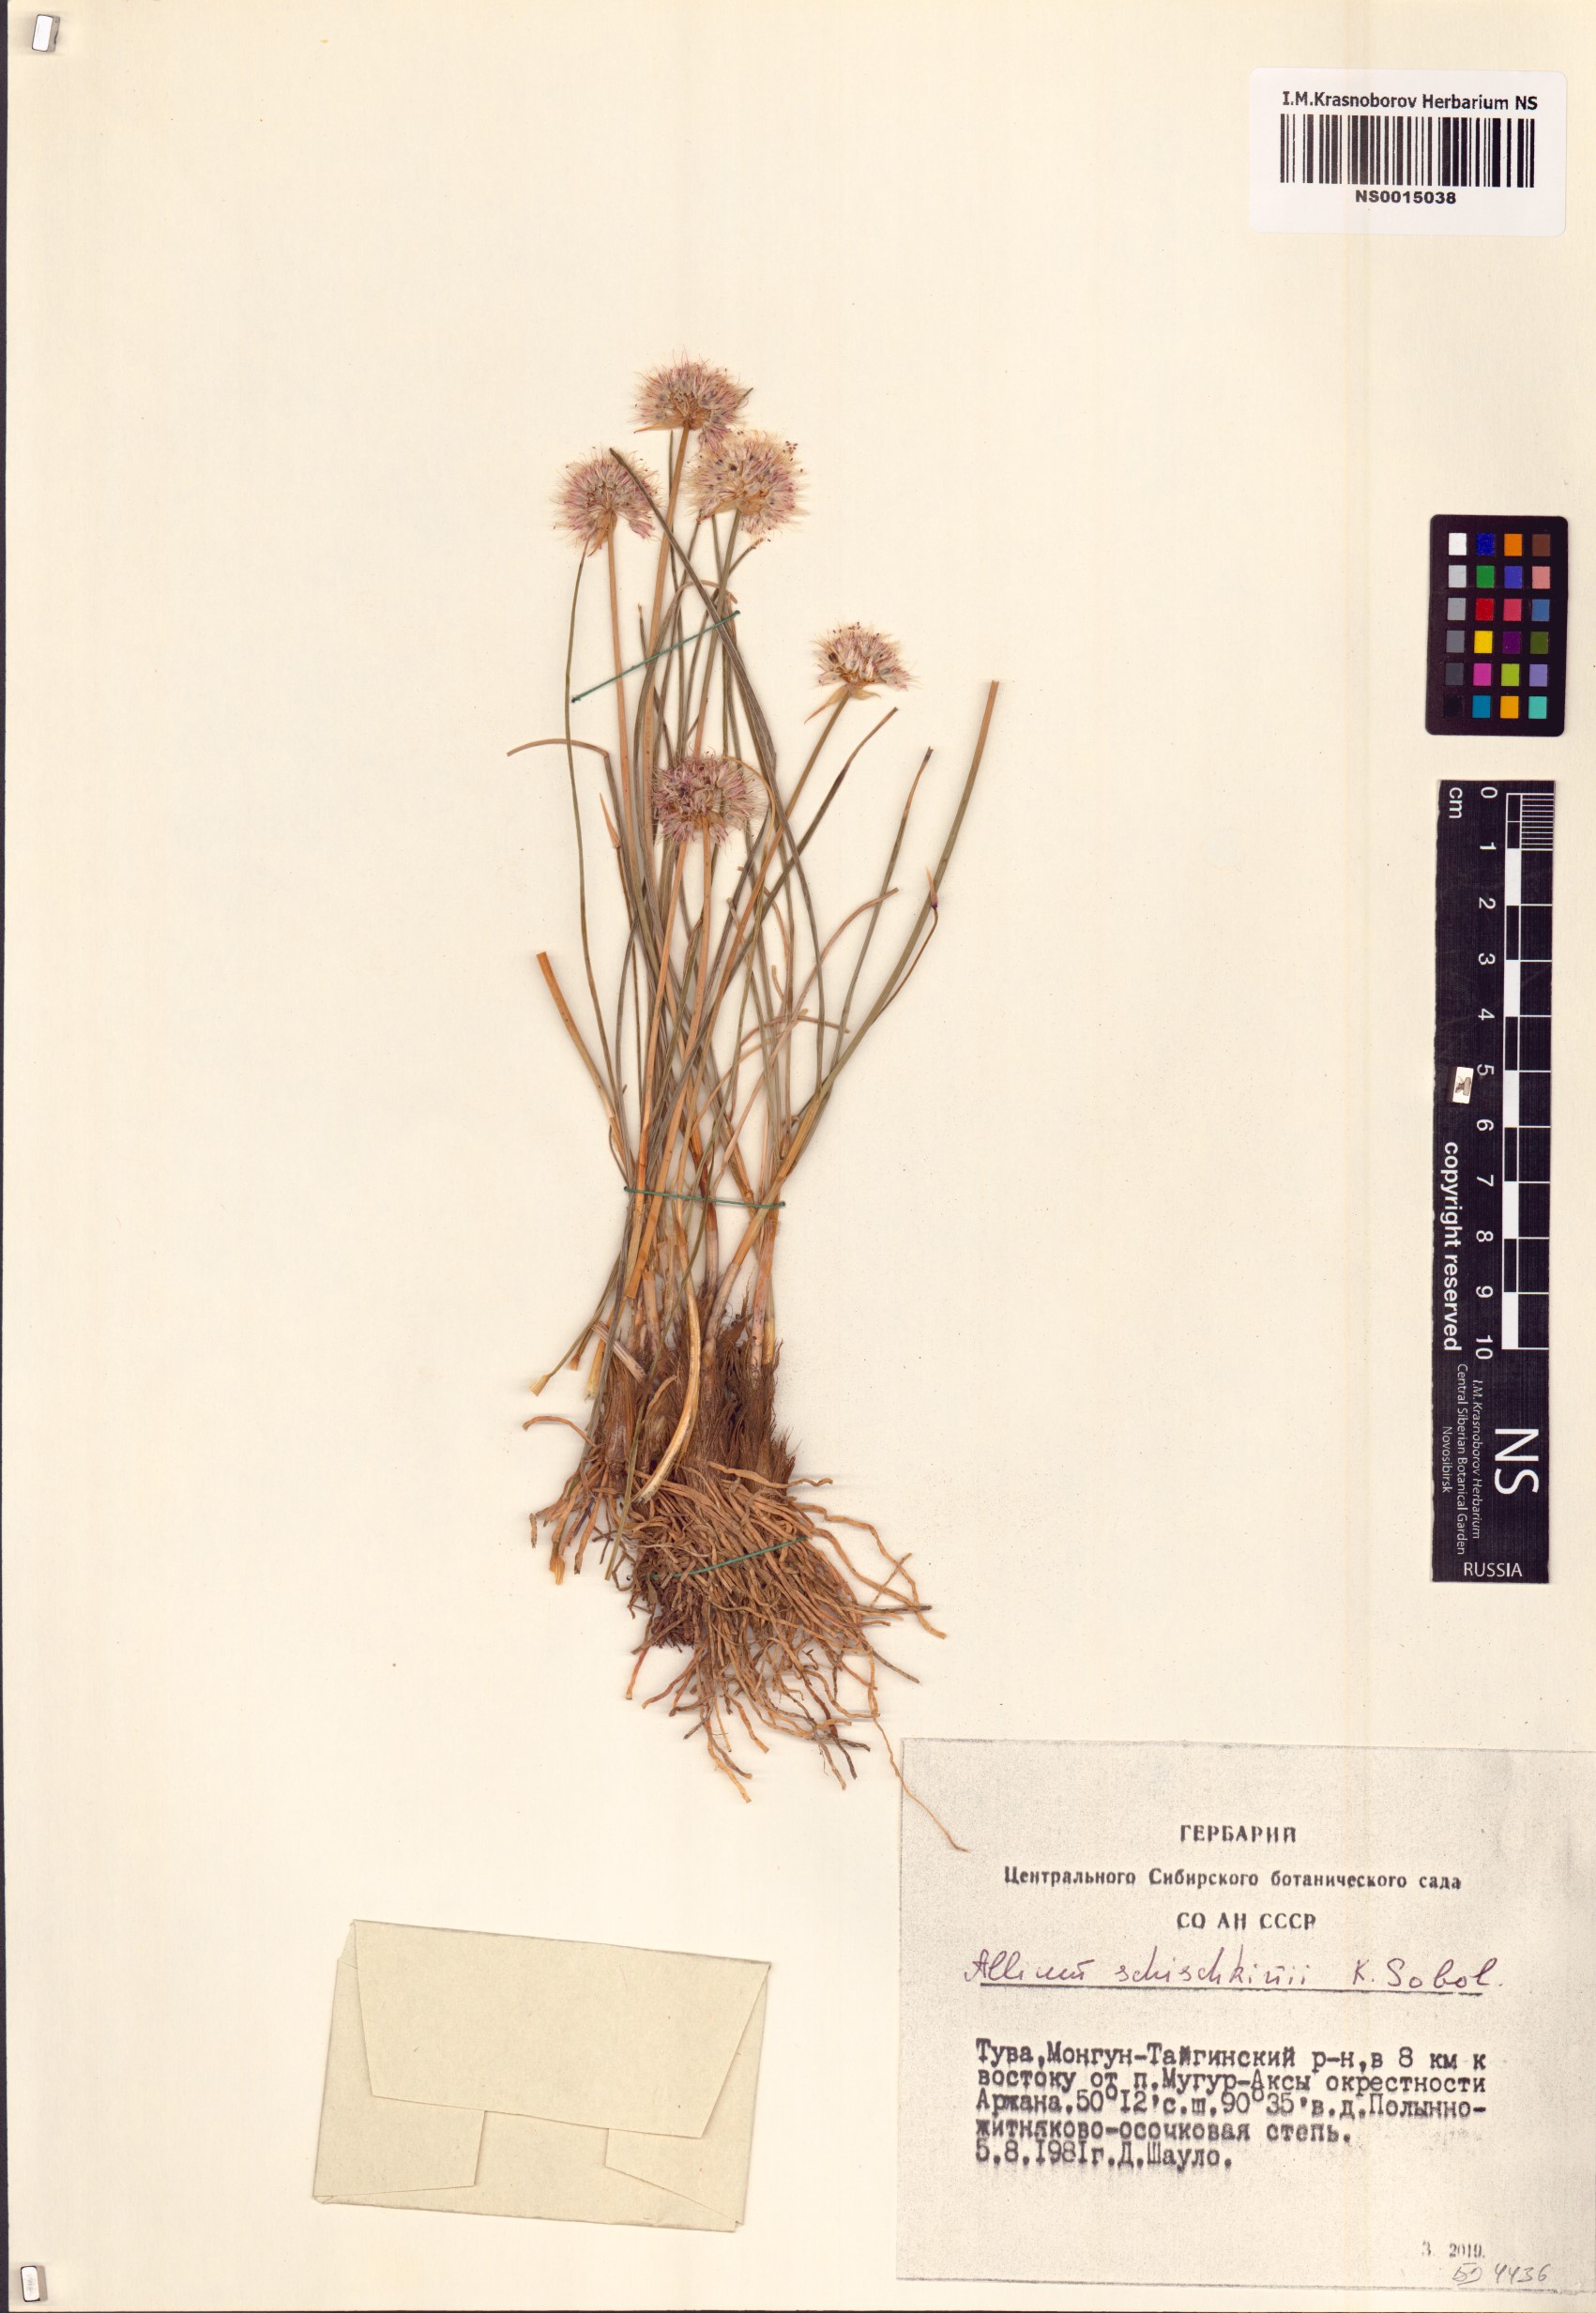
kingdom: Plantae
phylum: Tracheophyta
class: Liliopsida
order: Asparagales
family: Amaryllidaceae
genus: Allium
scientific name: Allium schischkinii
